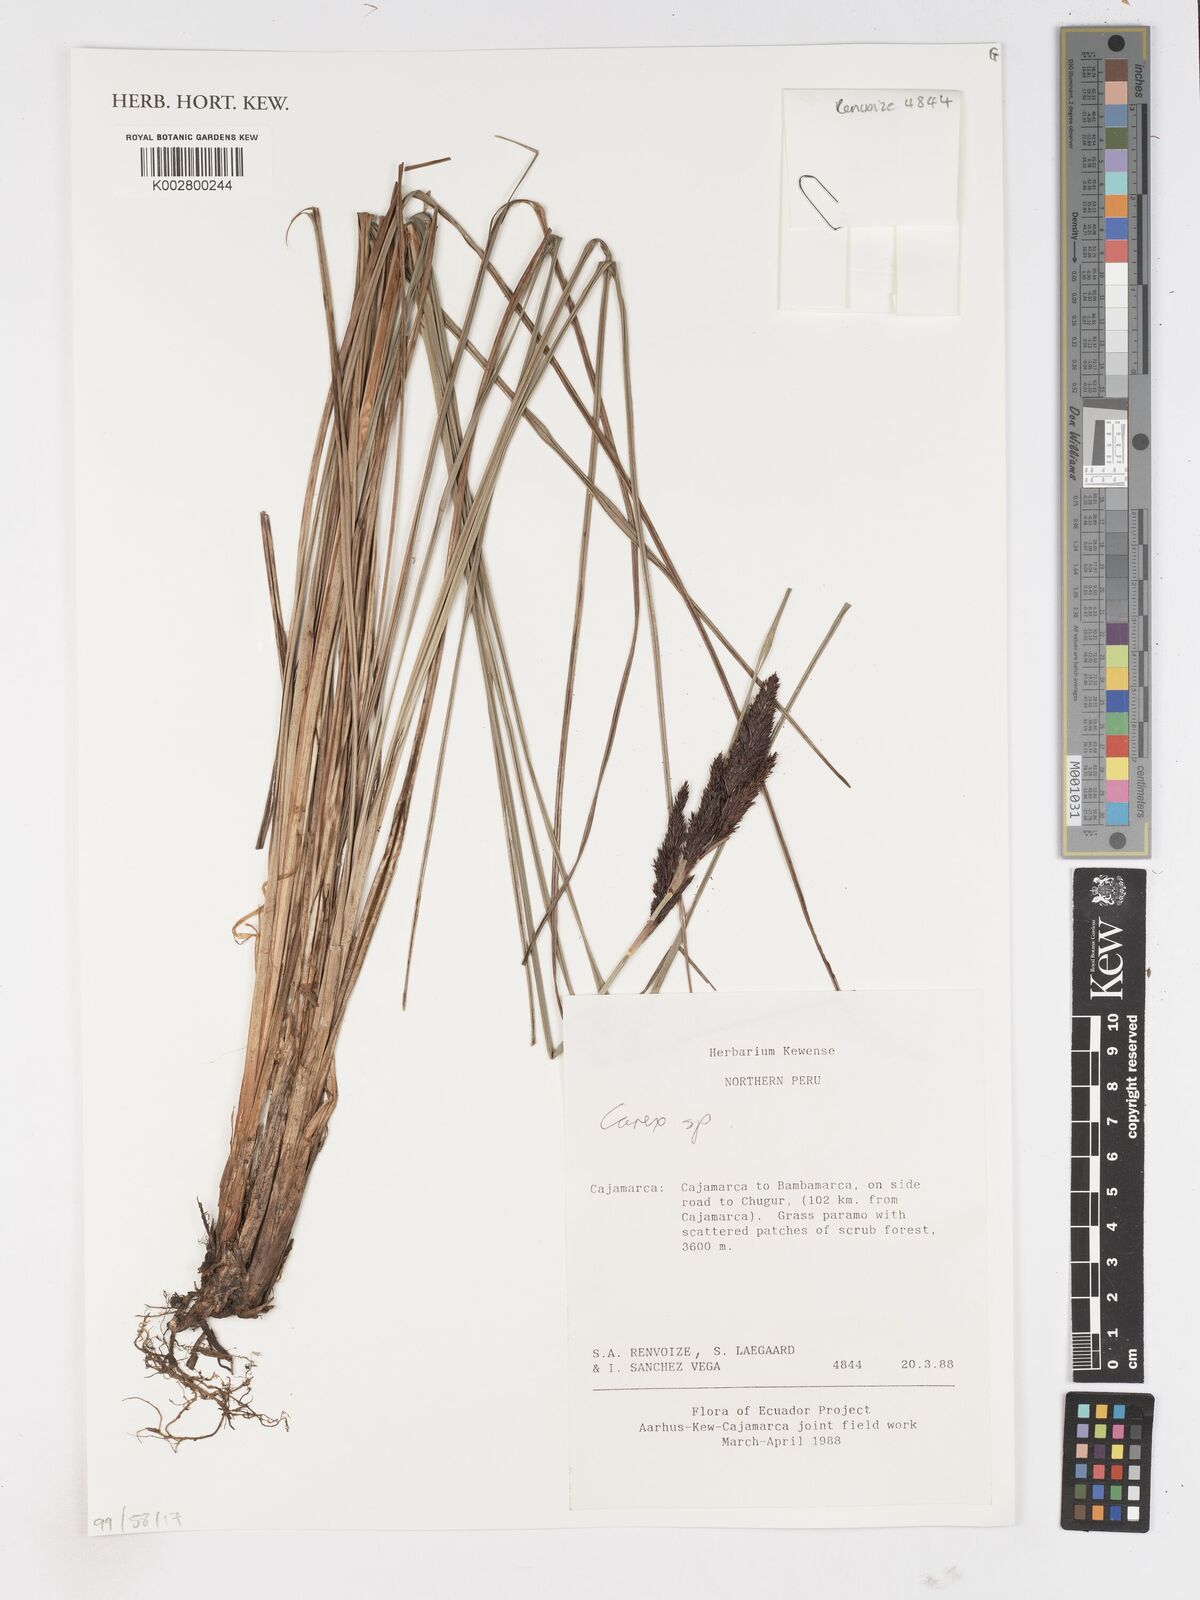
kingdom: Plantae
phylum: Tracheophyta
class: Liliopsida
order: Poales
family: Cyperaceae
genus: Carex
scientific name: Carex
